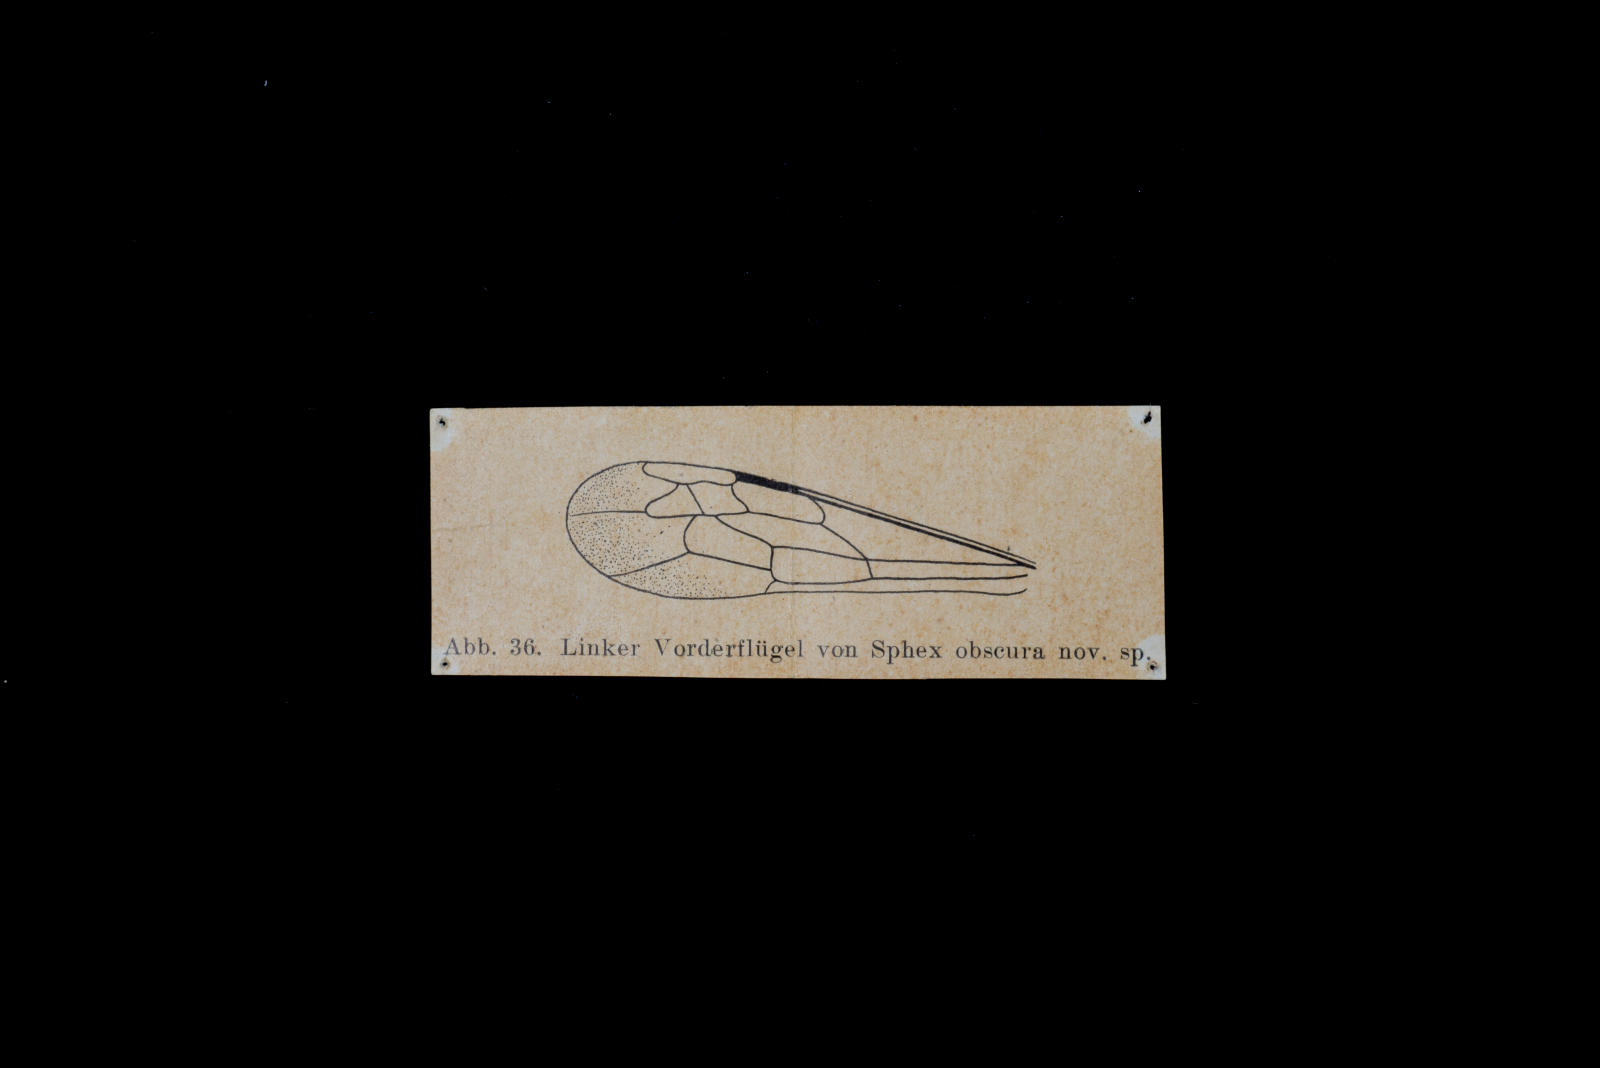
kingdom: Animalia
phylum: Arthropoda
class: Insecta
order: Hymenoptera
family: Sphecidae
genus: Sphex
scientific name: Sphex obscurus
